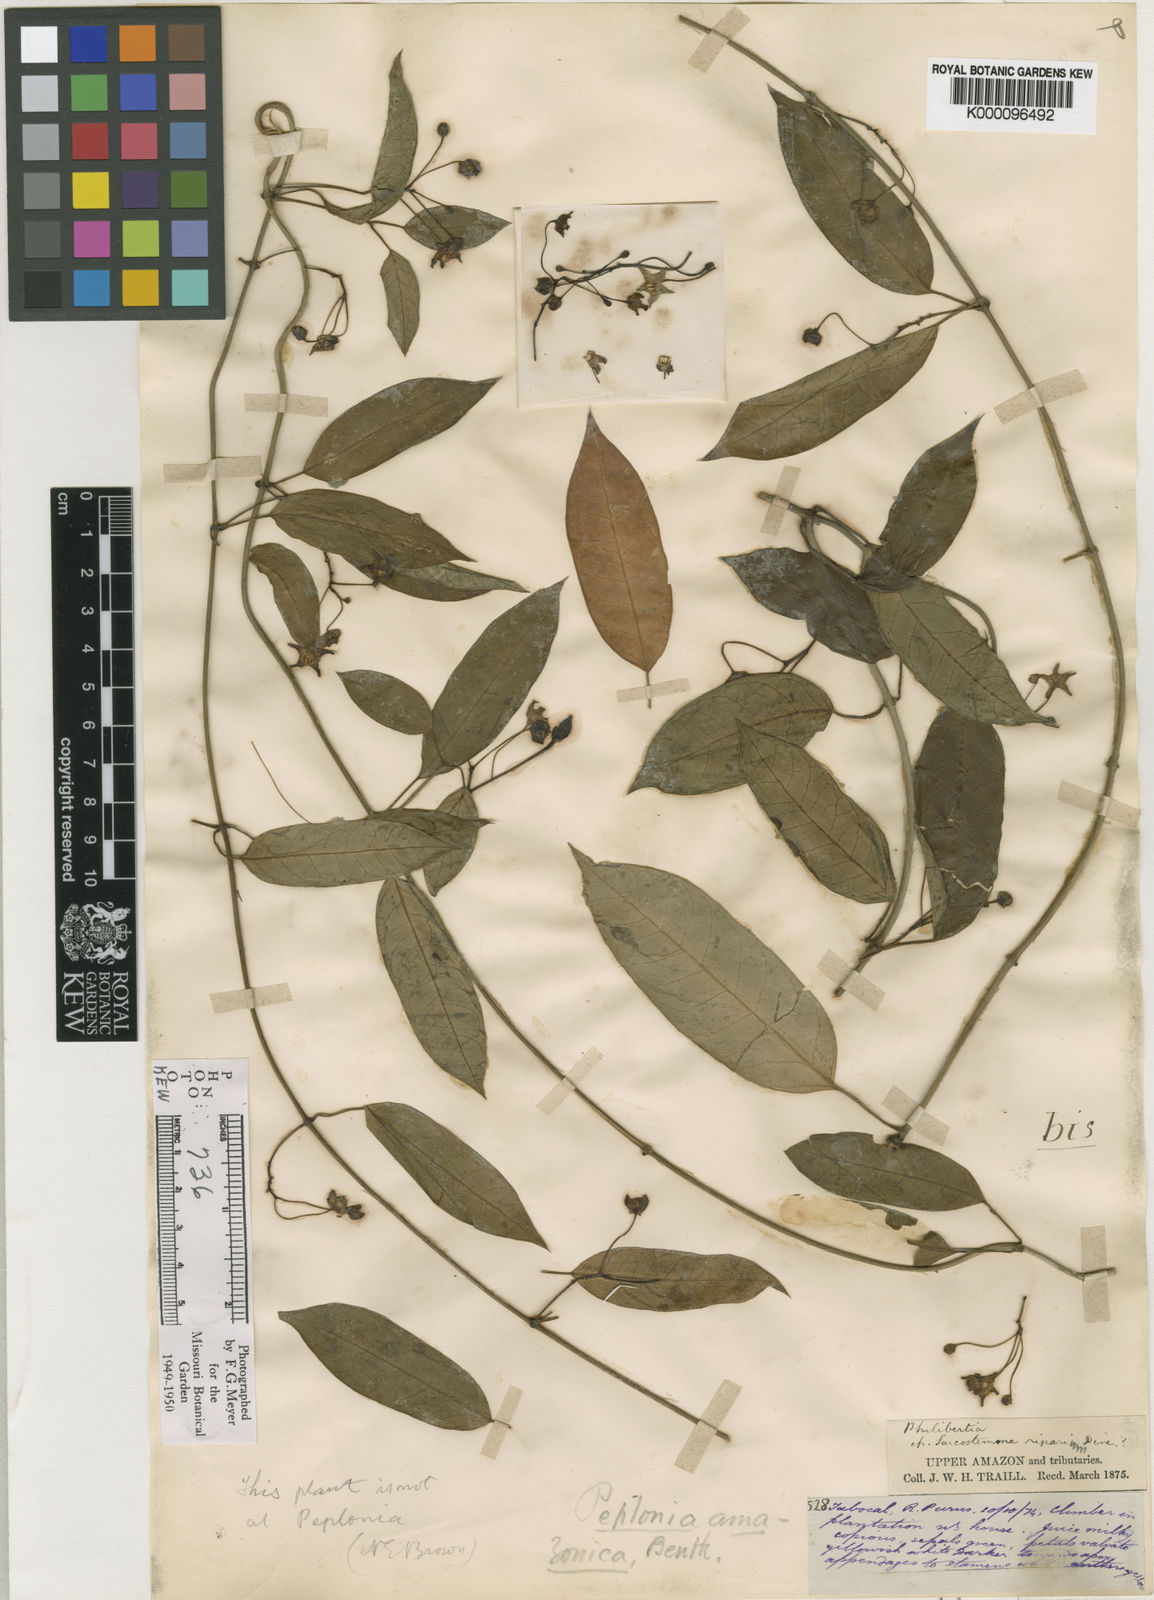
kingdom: Plantae
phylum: Tracheophyta
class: Magnoliopsida
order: Gentianales
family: Apocynaceae
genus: Blepharodon
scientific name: Blepharodon amazonicum
